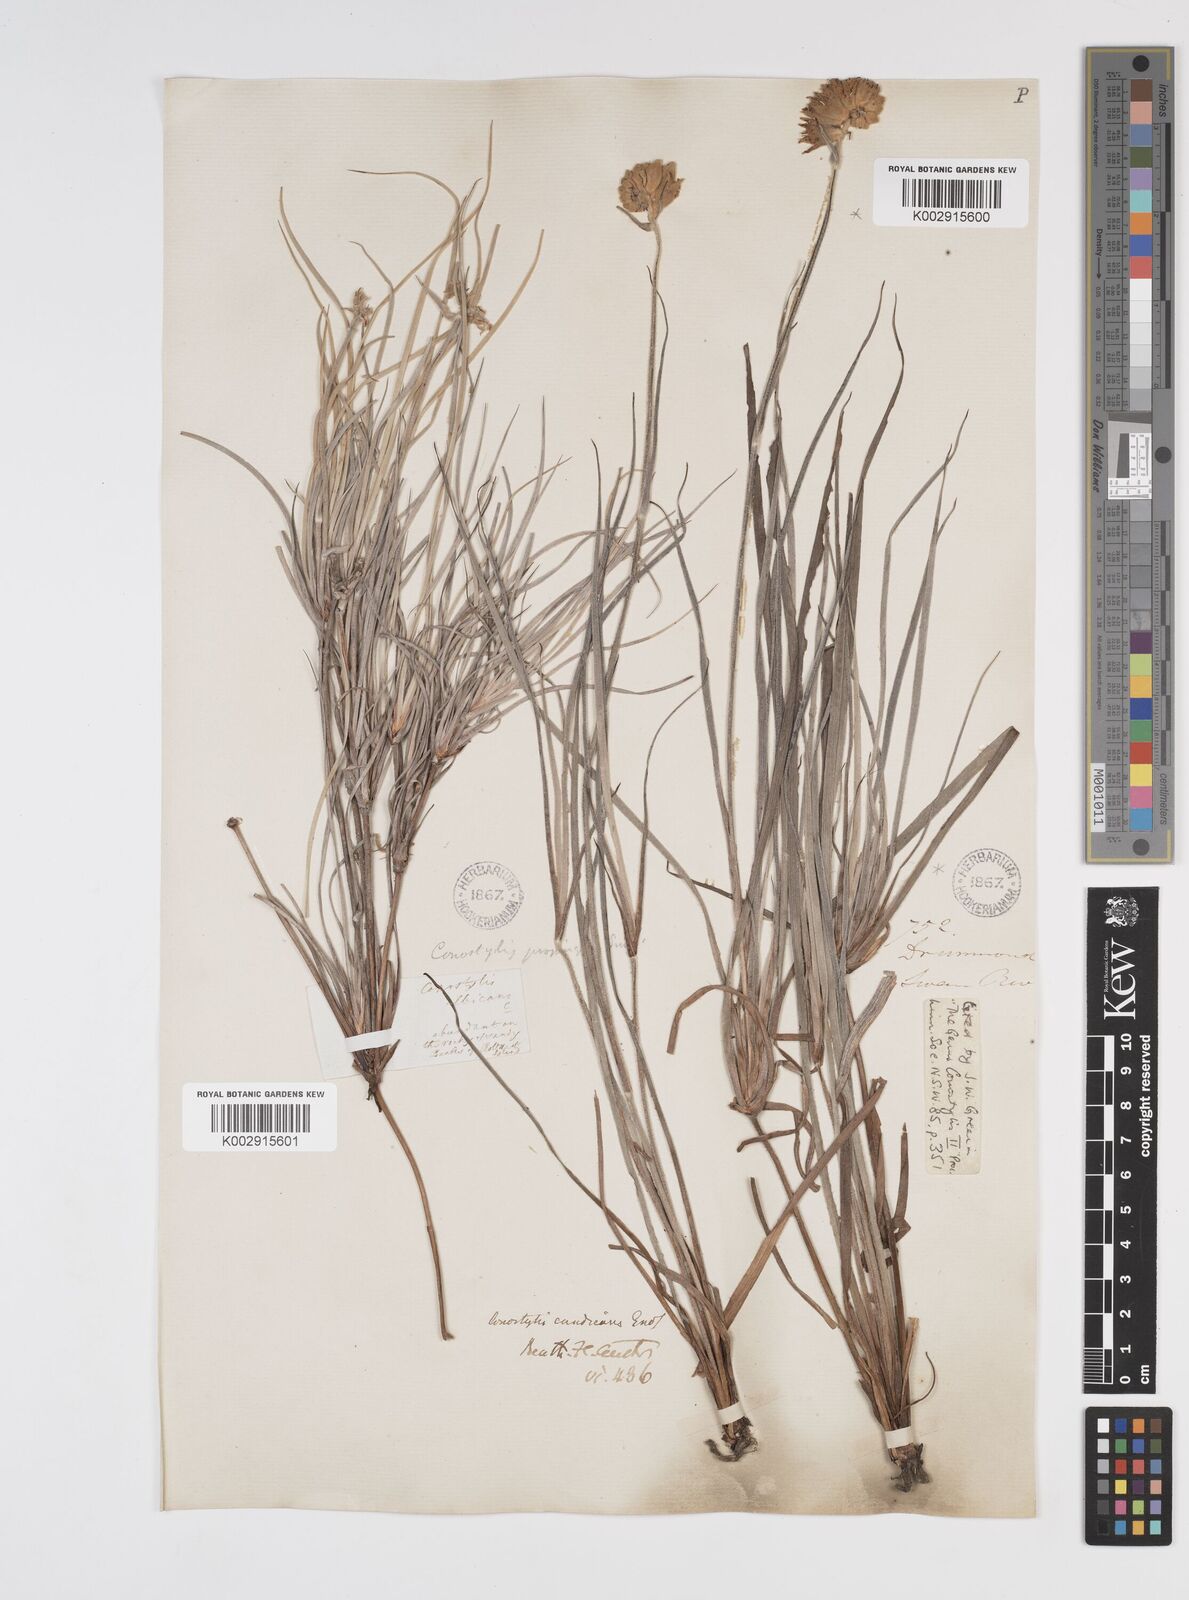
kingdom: Plantae
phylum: Tracheophyta
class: Liliopsida
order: Commelinales
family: Haemodoraceae
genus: Conostylis
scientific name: Conostylis candicans
